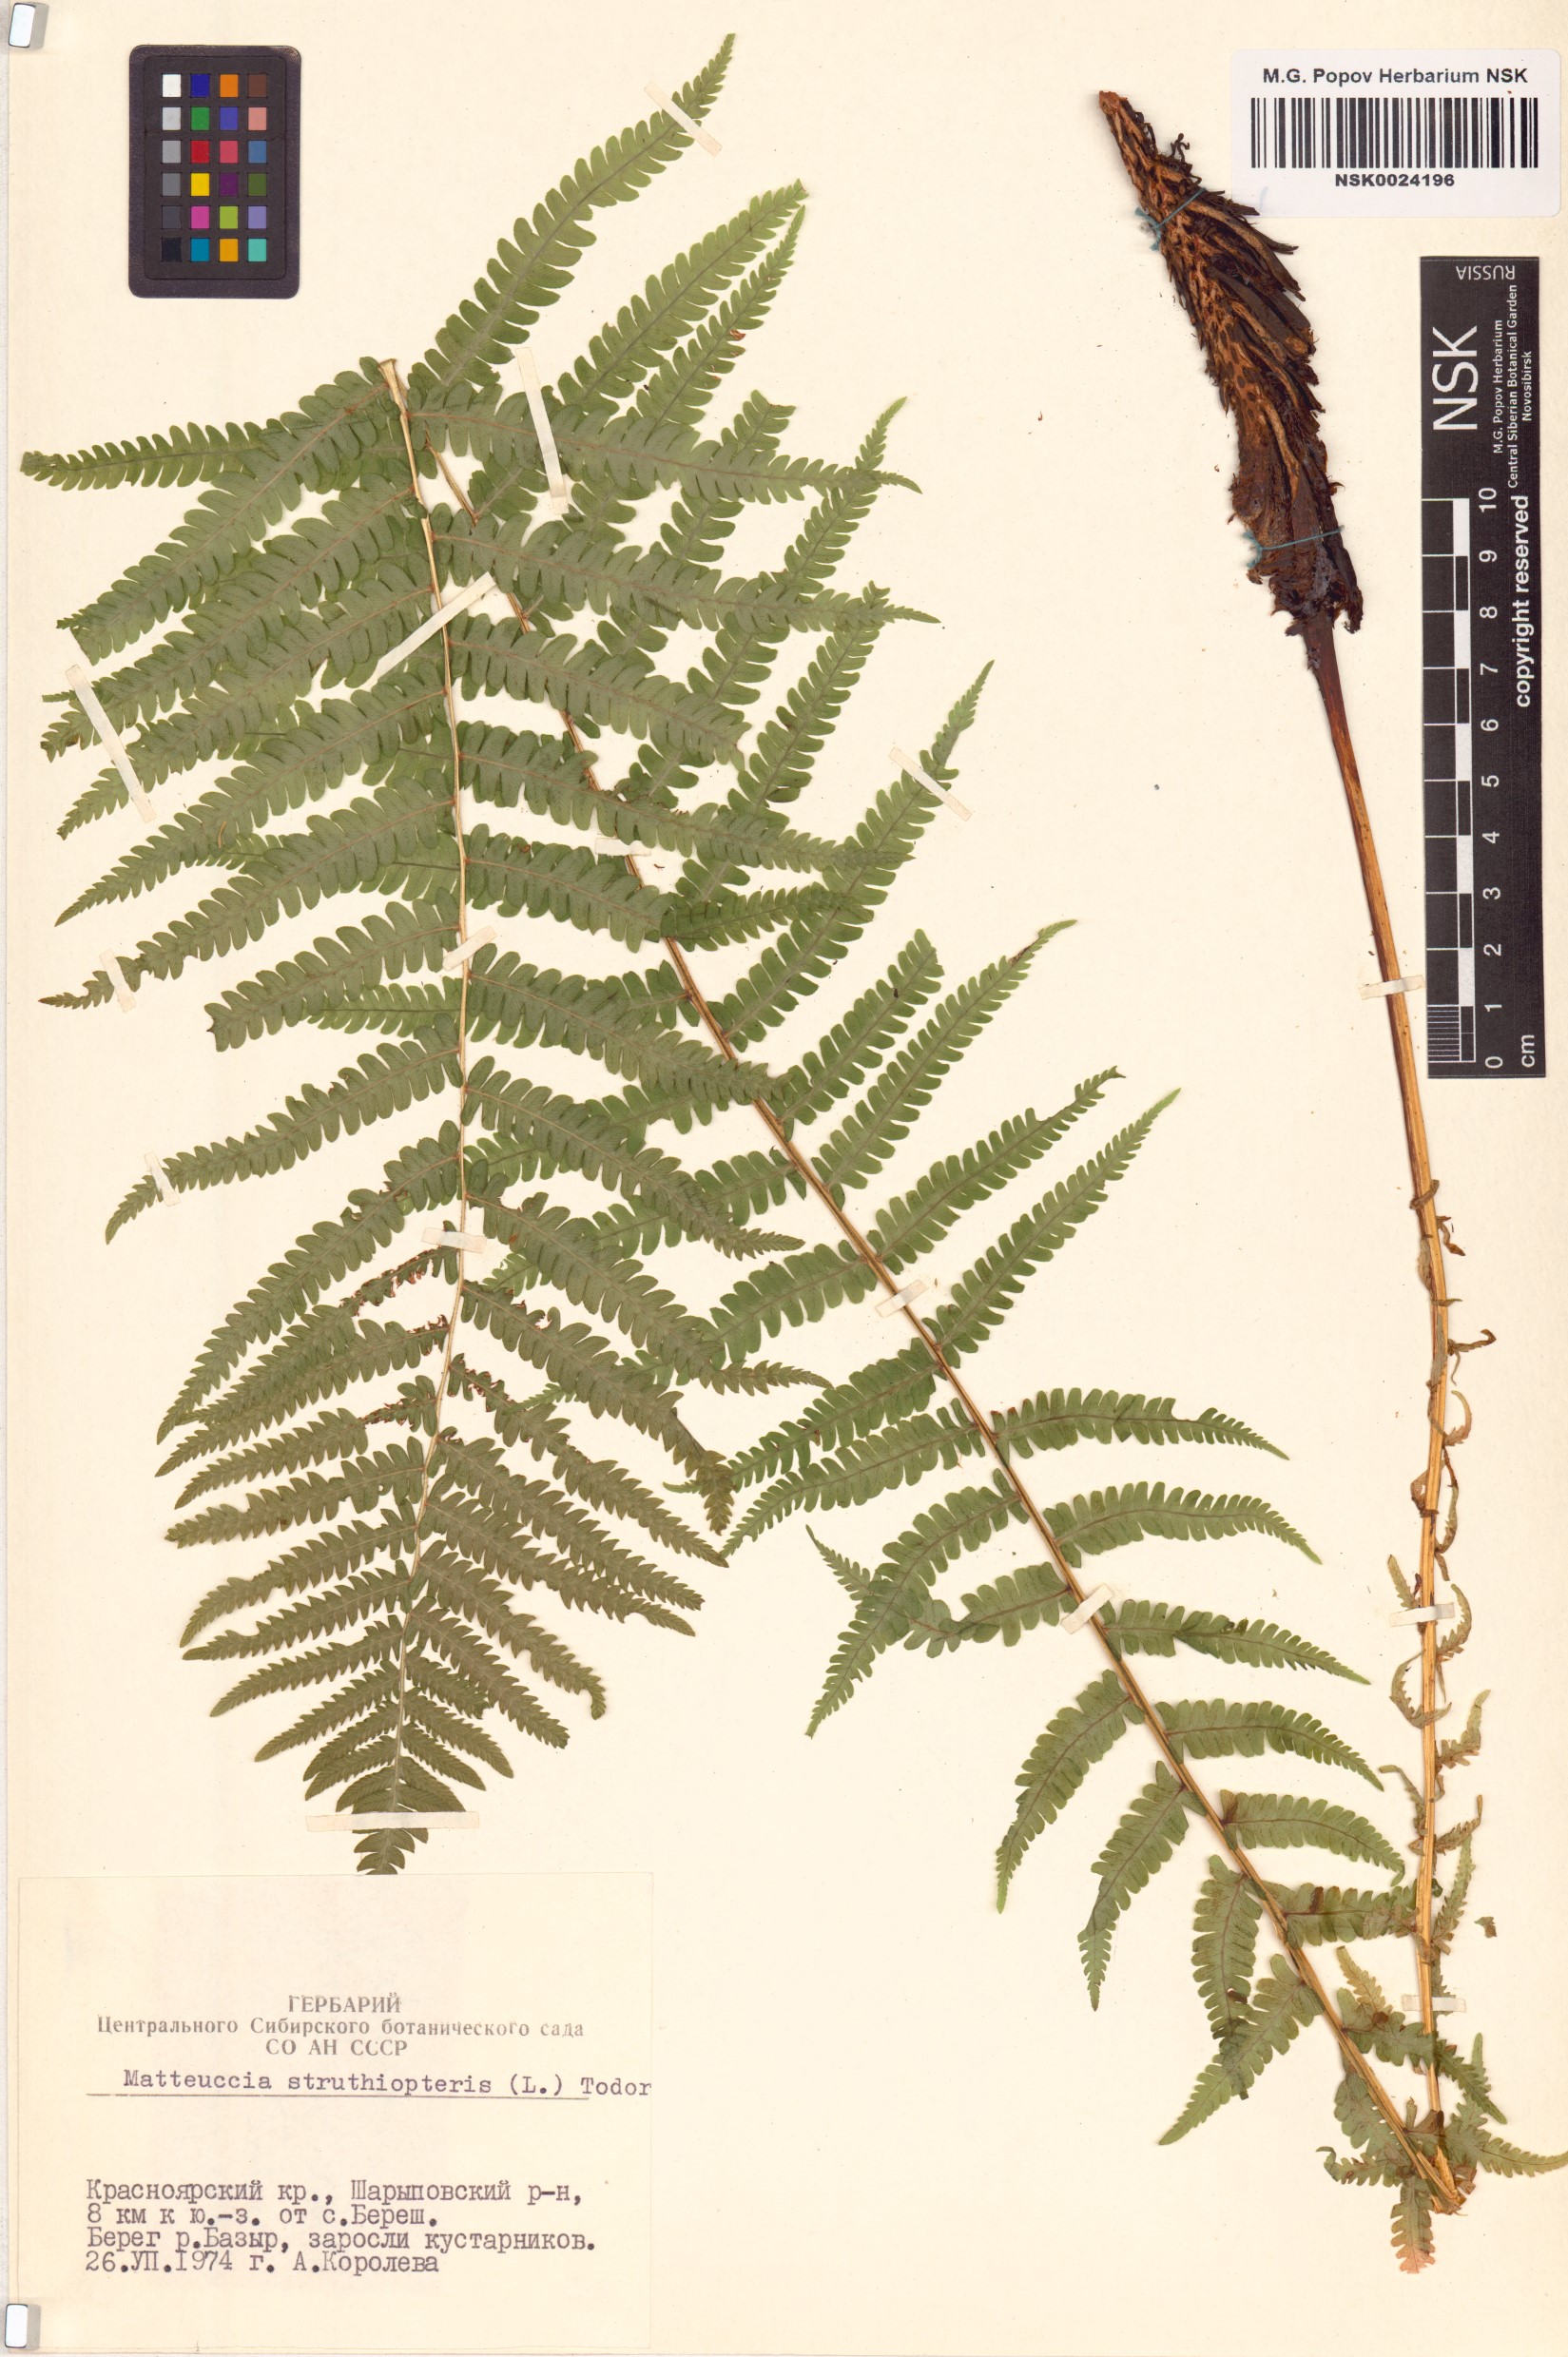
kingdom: Plantae
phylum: Tracheophyta
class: Polypodiopsida
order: Polypodiales
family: Onocleaceae
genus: Matteuccia
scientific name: Matteuccia struthiopteris
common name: Ostrich fern
